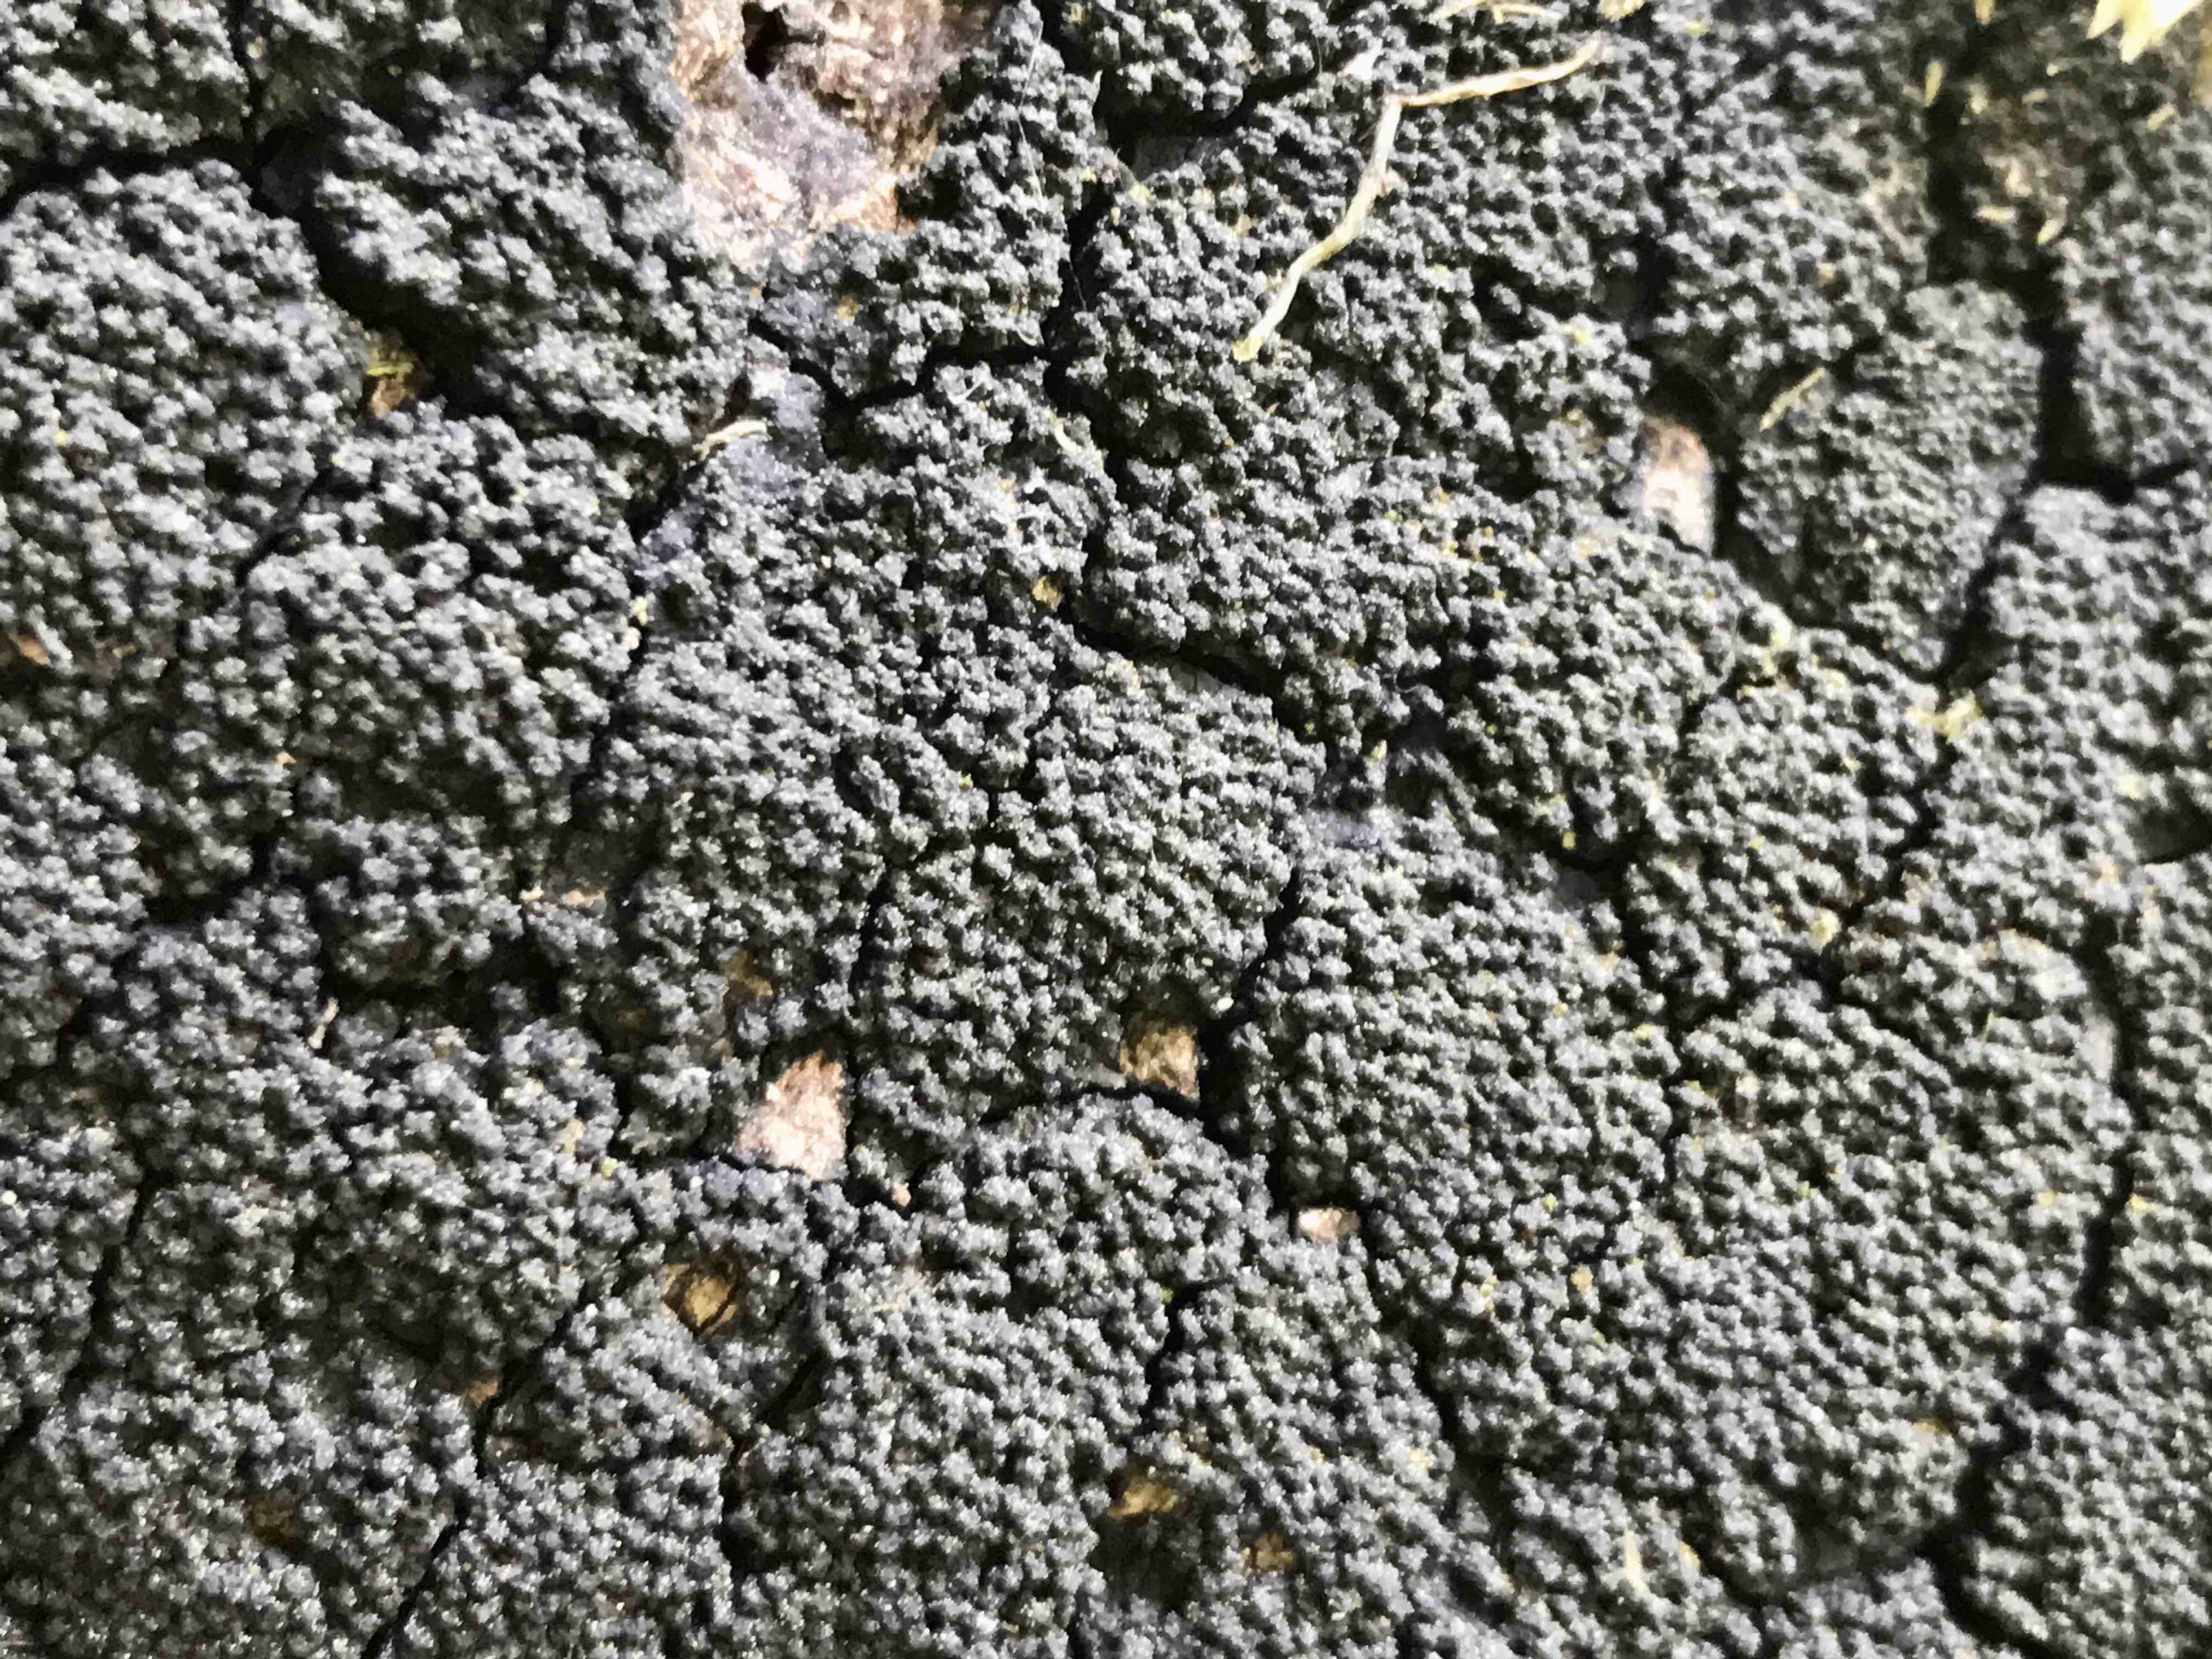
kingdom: Fungi
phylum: Ascomycota
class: Sordariomycetes
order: Xylariales
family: Diatrypaceae
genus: Eutypa
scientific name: Eutypa spinosa
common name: grov kulskorpe
